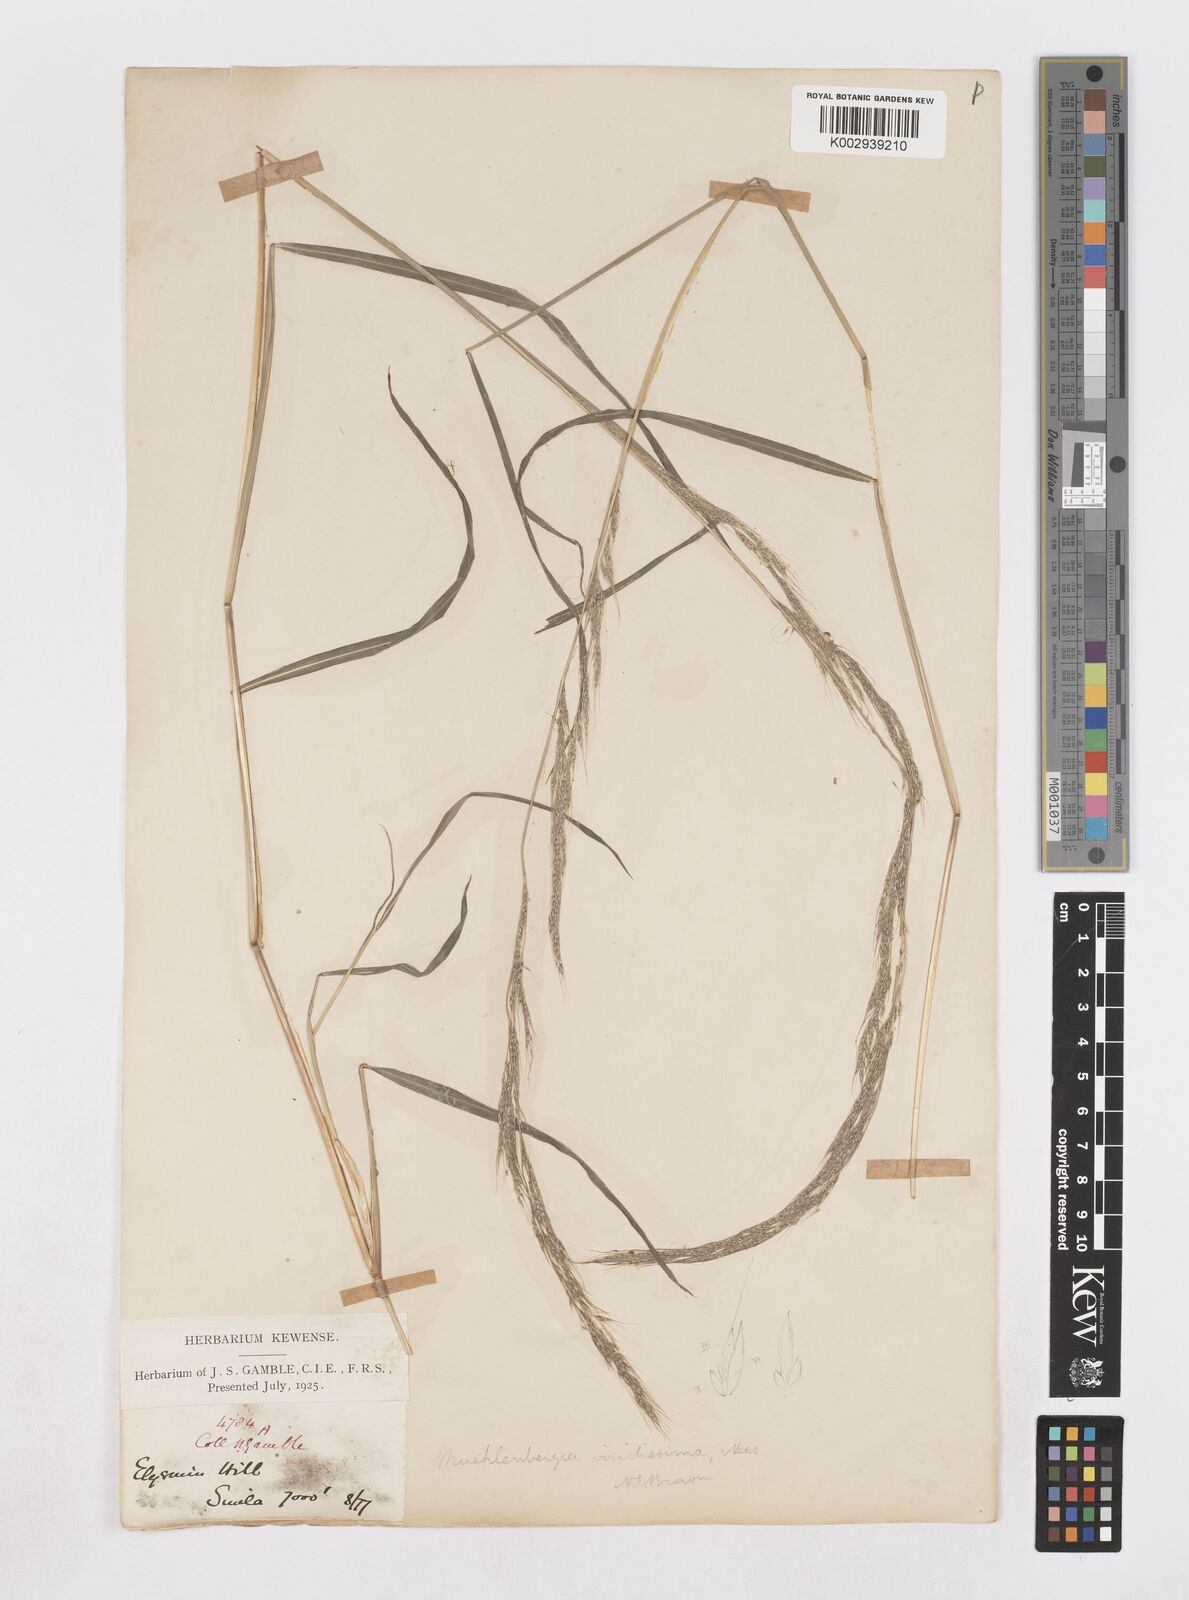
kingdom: Plantae
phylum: Tracheophyta
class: Liliopsida
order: Poales
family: Poaceae
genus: Muhlenbergia
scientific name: Muhlenbergia huegelii
